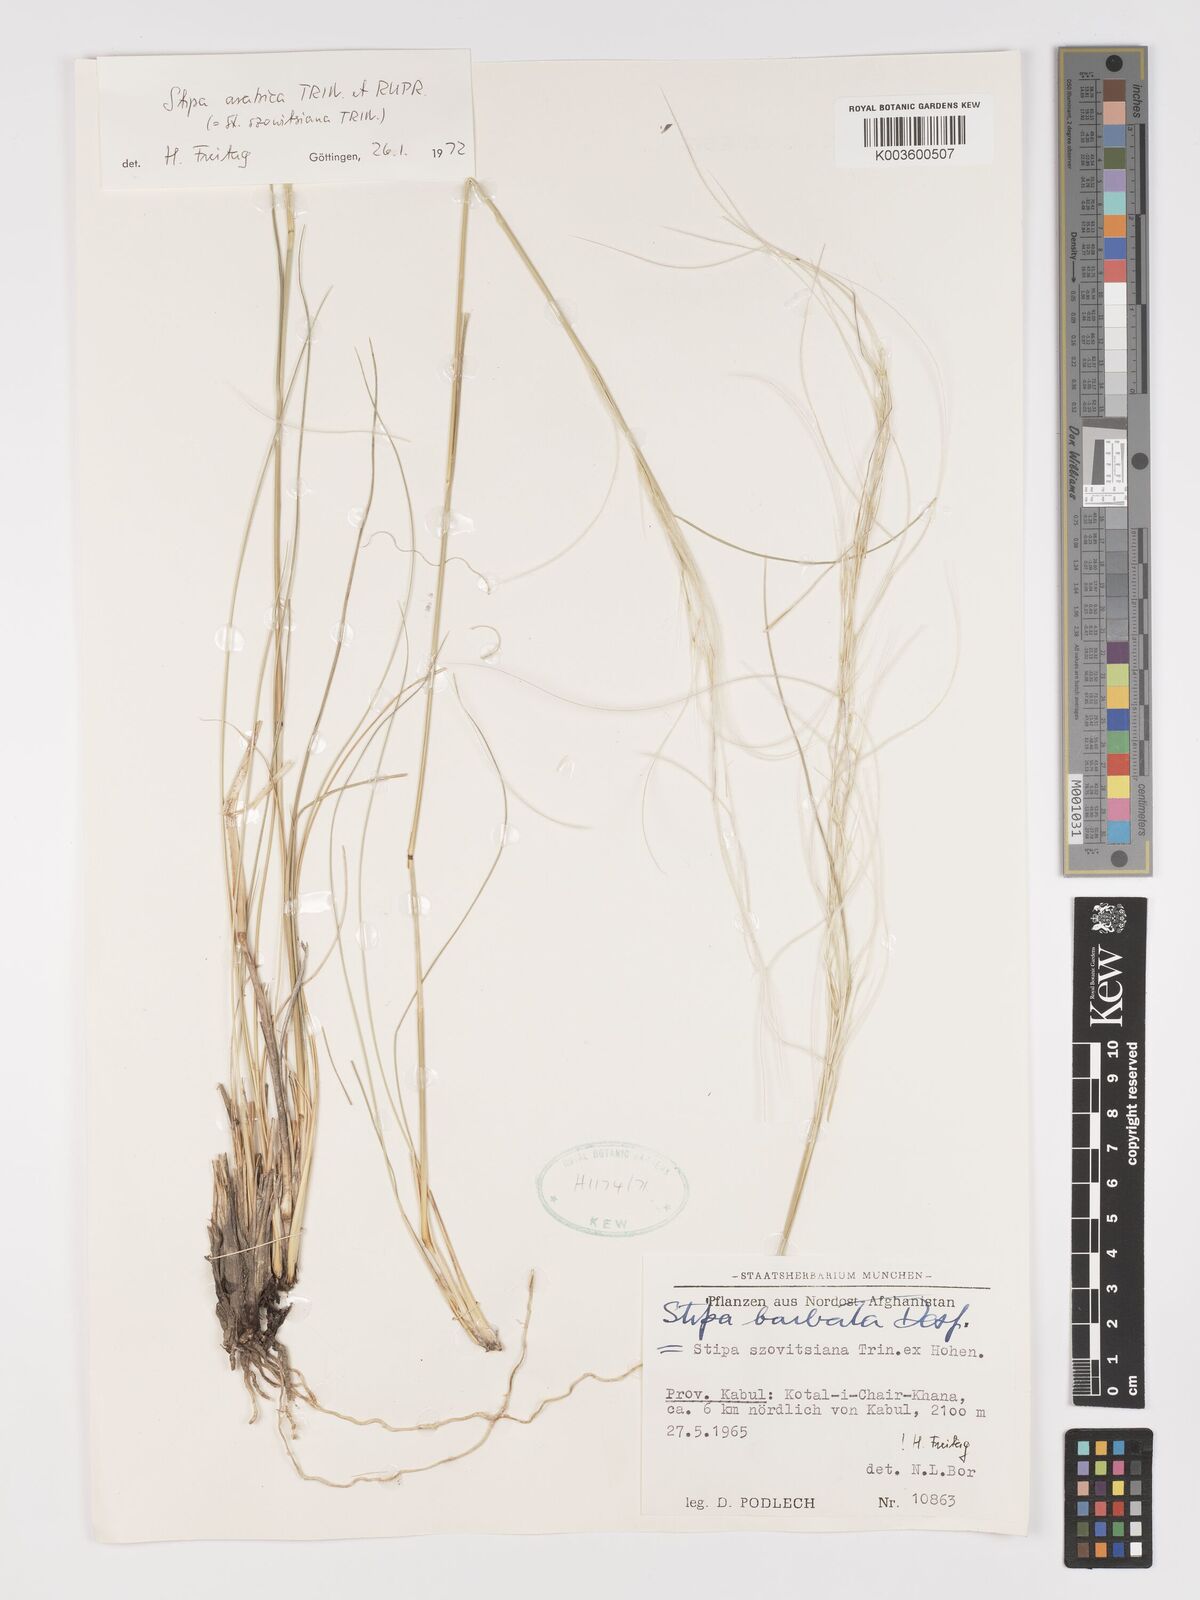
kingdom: Plantae
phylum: Tracheophyta
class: Liliopsida
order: Poales
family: Poaceae
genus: Stipa
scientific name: Stipa arabica
